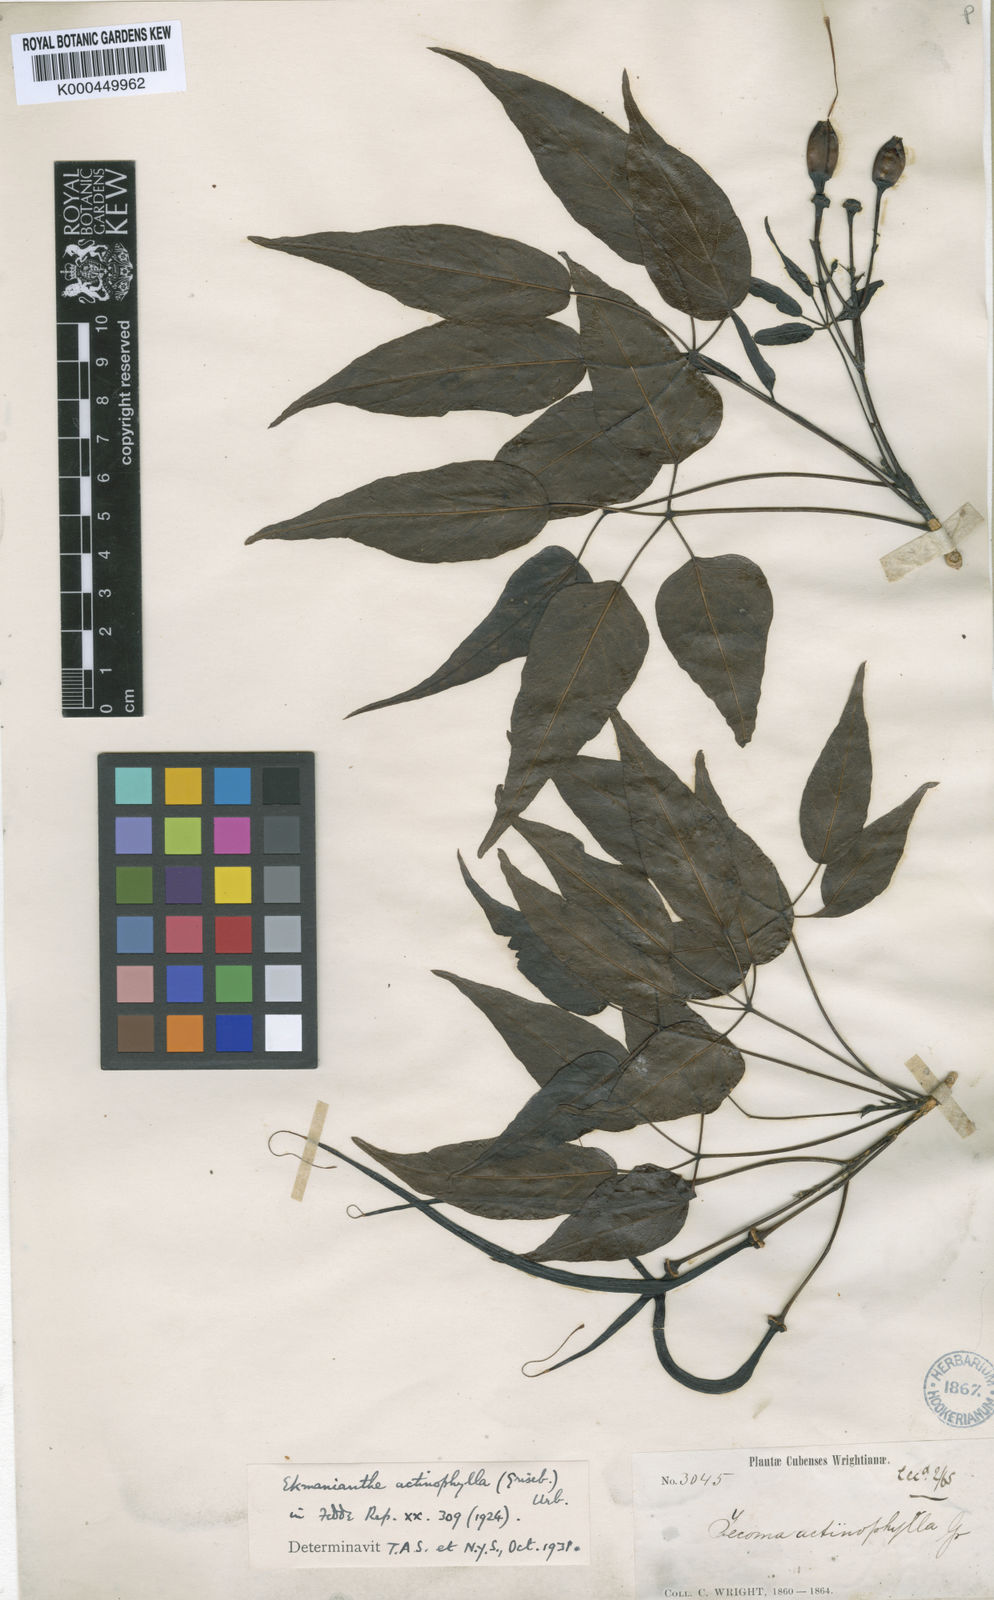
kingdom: Plantae
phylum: Tracheophyta
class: Magnoliopsida
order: Lamiales
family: Bignoniaceae
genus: Ekmanianthe
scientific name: Ekmanianthe actinophylla
